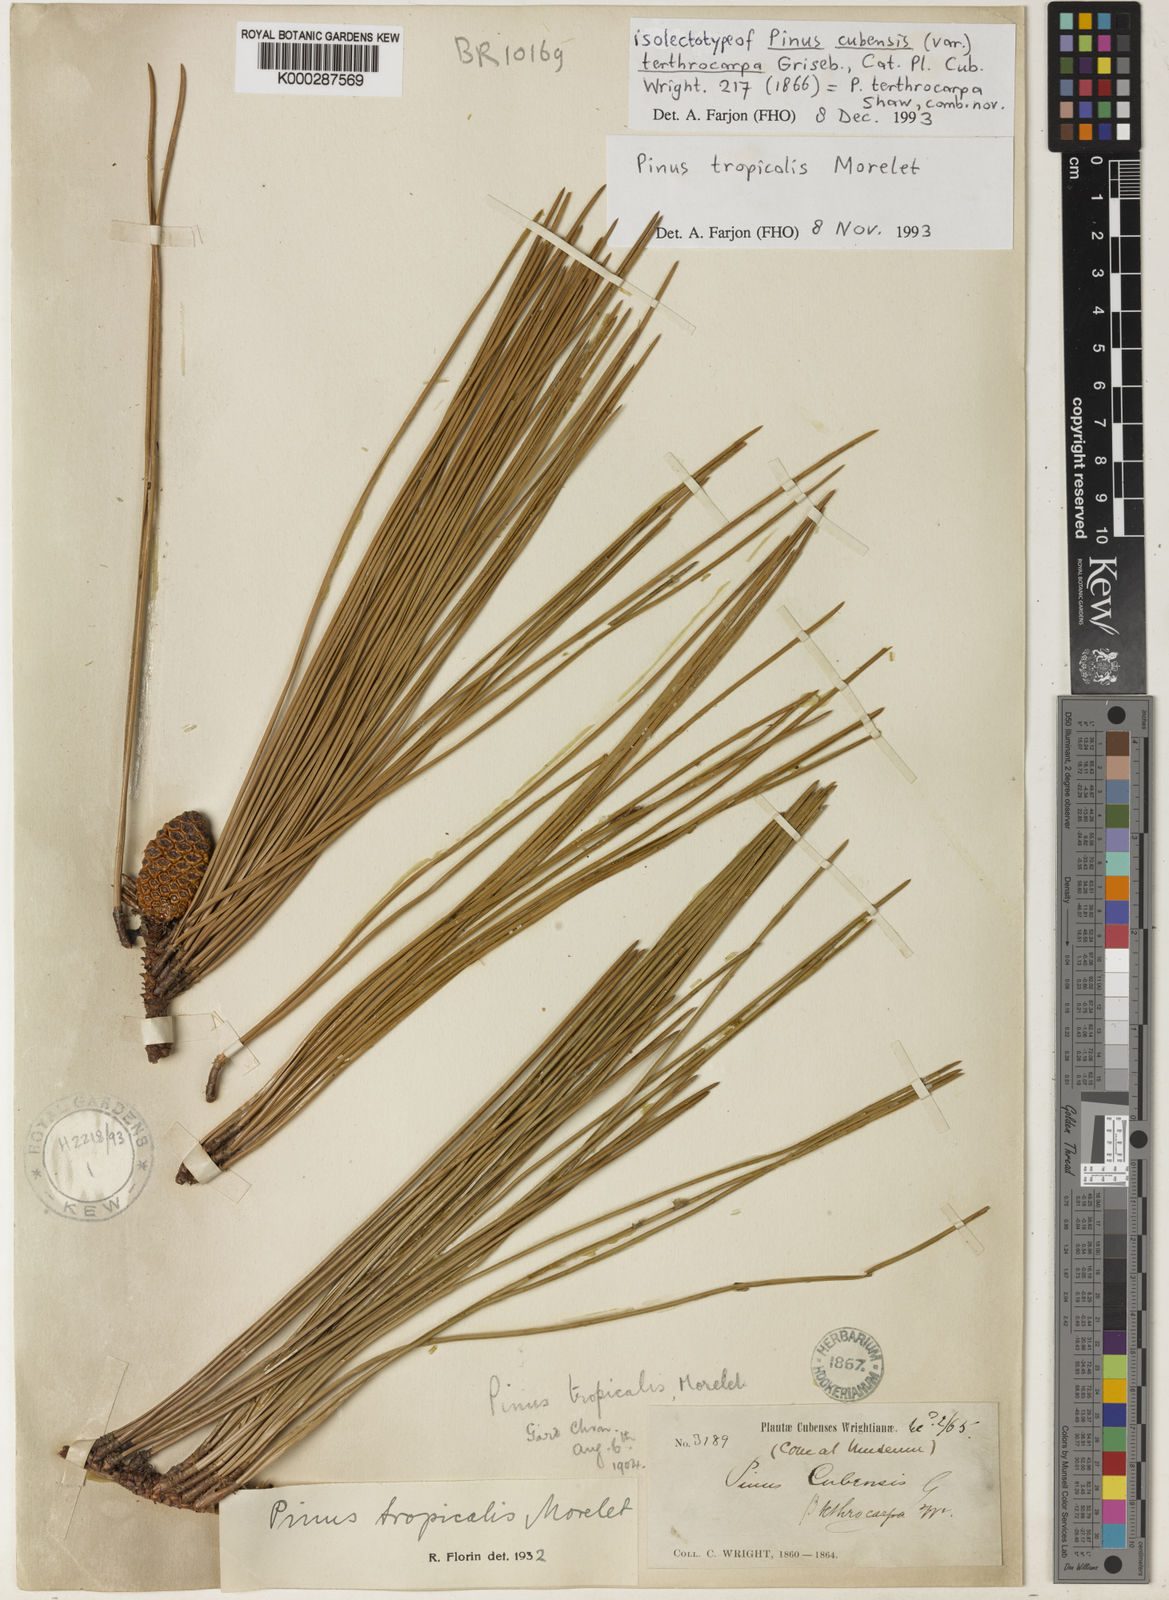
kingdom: Plantae
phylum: Tracheophyta
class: Pinopsida
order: Pinales
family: Pinaceae
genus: Pinus
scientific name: Pinus tropicalis
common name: Tropical pine
